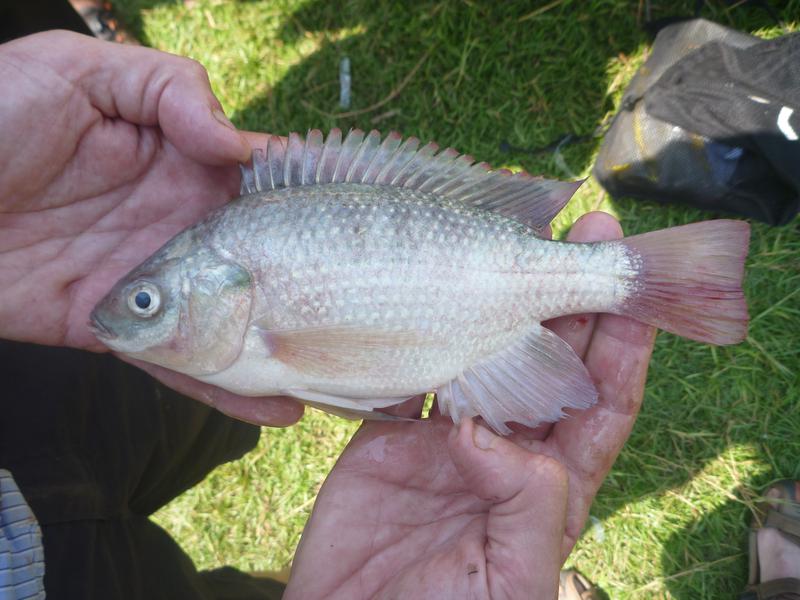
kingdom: Animalia
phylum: Chordata
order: Perciformes
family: Cichlidae
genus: Oreochromis
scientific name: Oreochromis esculentus
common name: Carp
